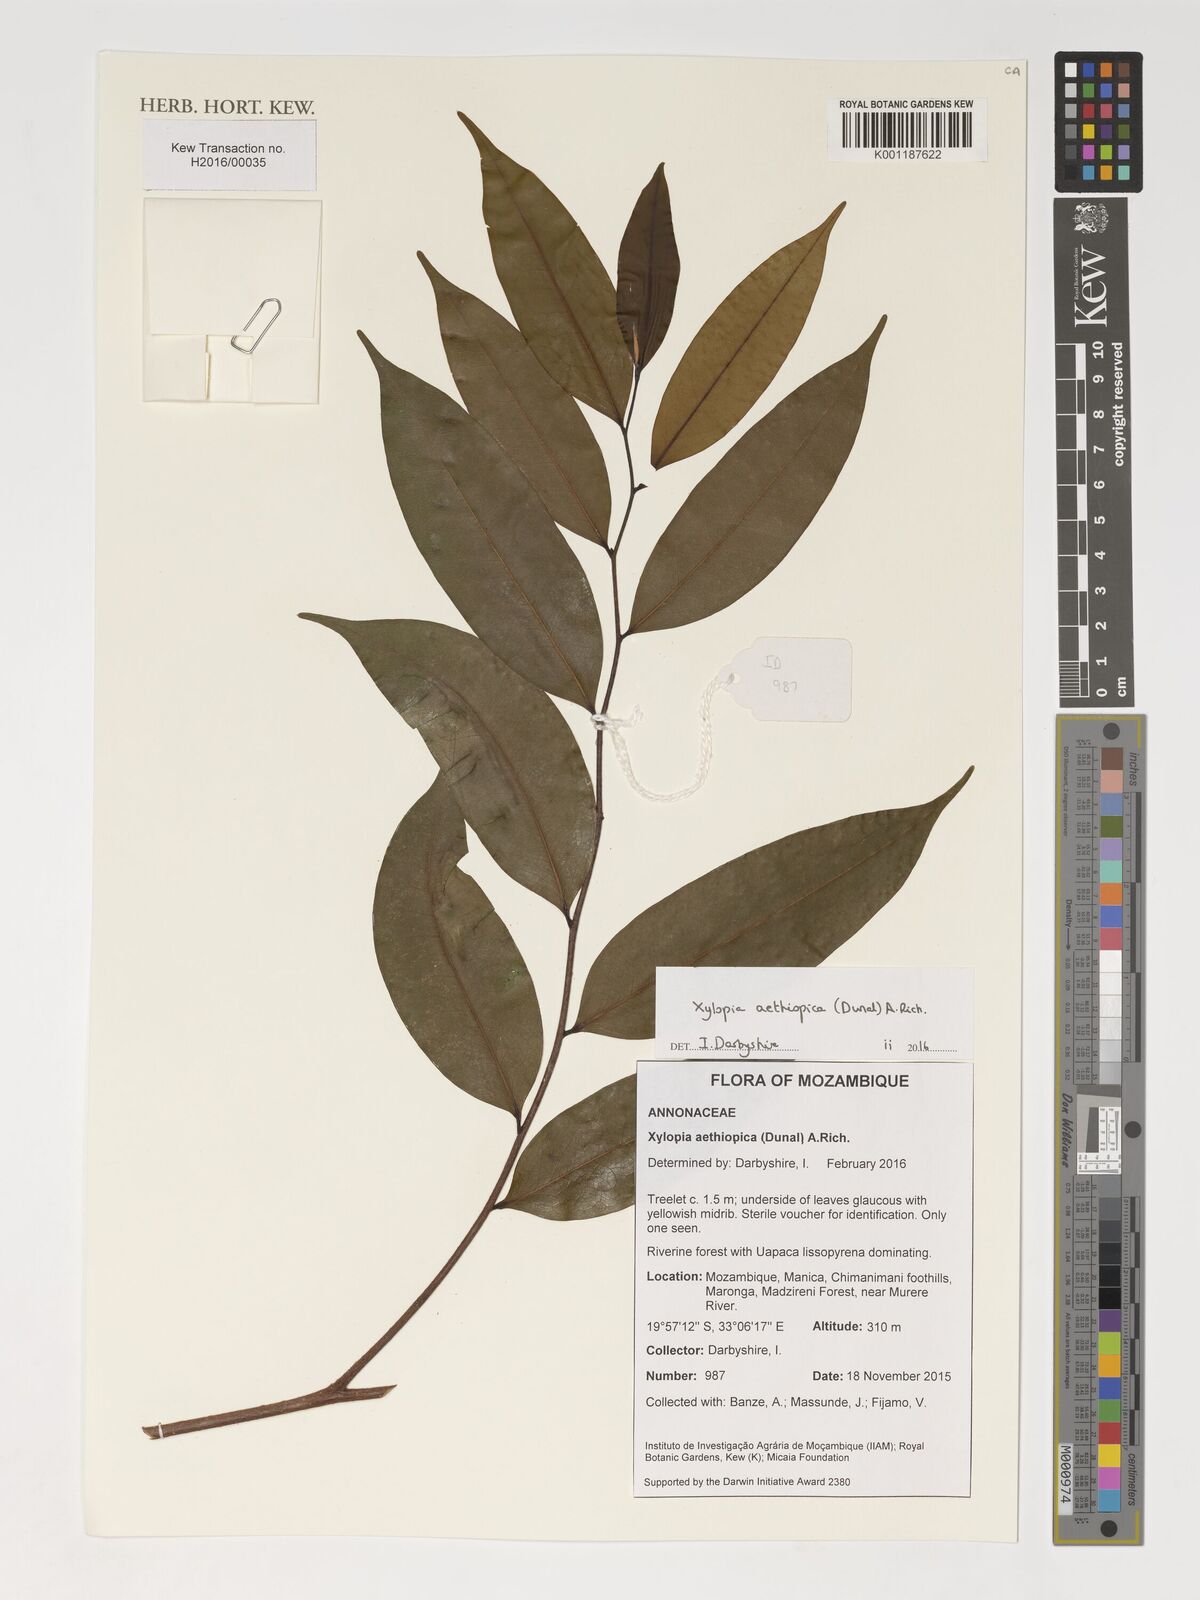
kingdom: Plantae
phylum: Tracheophyta
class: Magnoliopsida
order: Magnoliales
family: Annonaceae
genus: Xylopia
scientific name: Xylopia aethiopica
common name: Ethiopian-pepper
